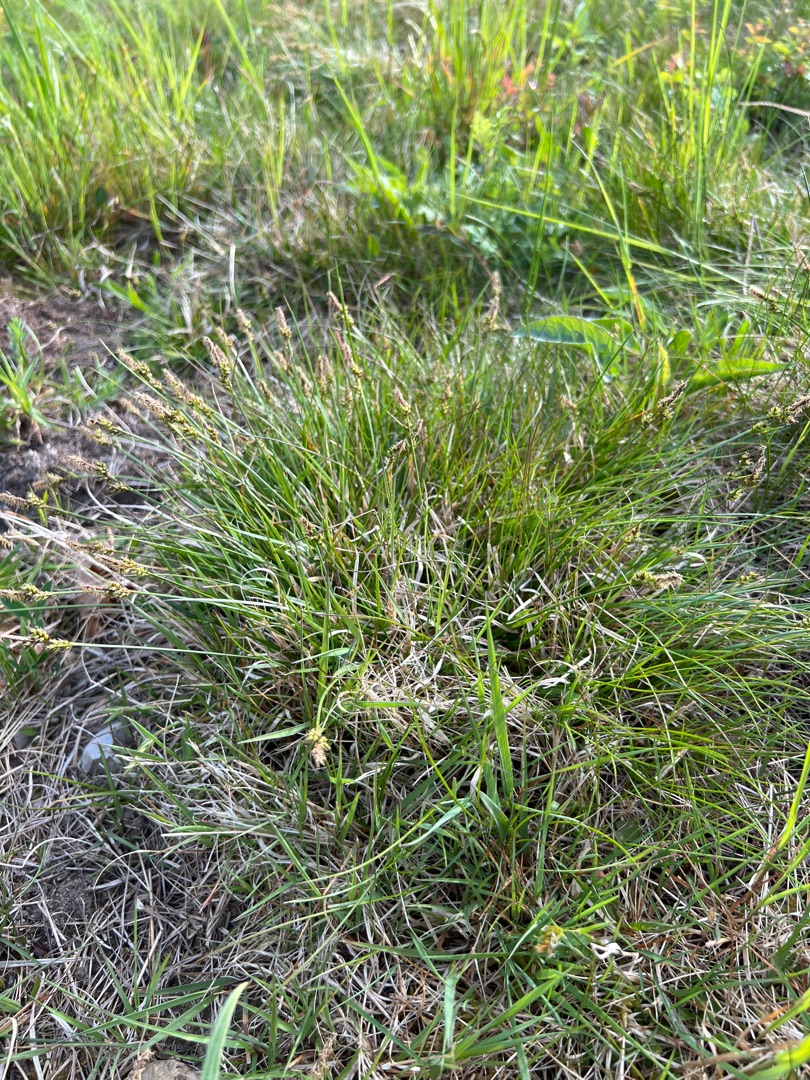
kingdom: Plantae
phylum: Tracheophyta
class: Liliopsida
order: Poales
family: Cyperaceae
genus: Carex
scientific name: Carex pilulifera
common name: Pille-star
